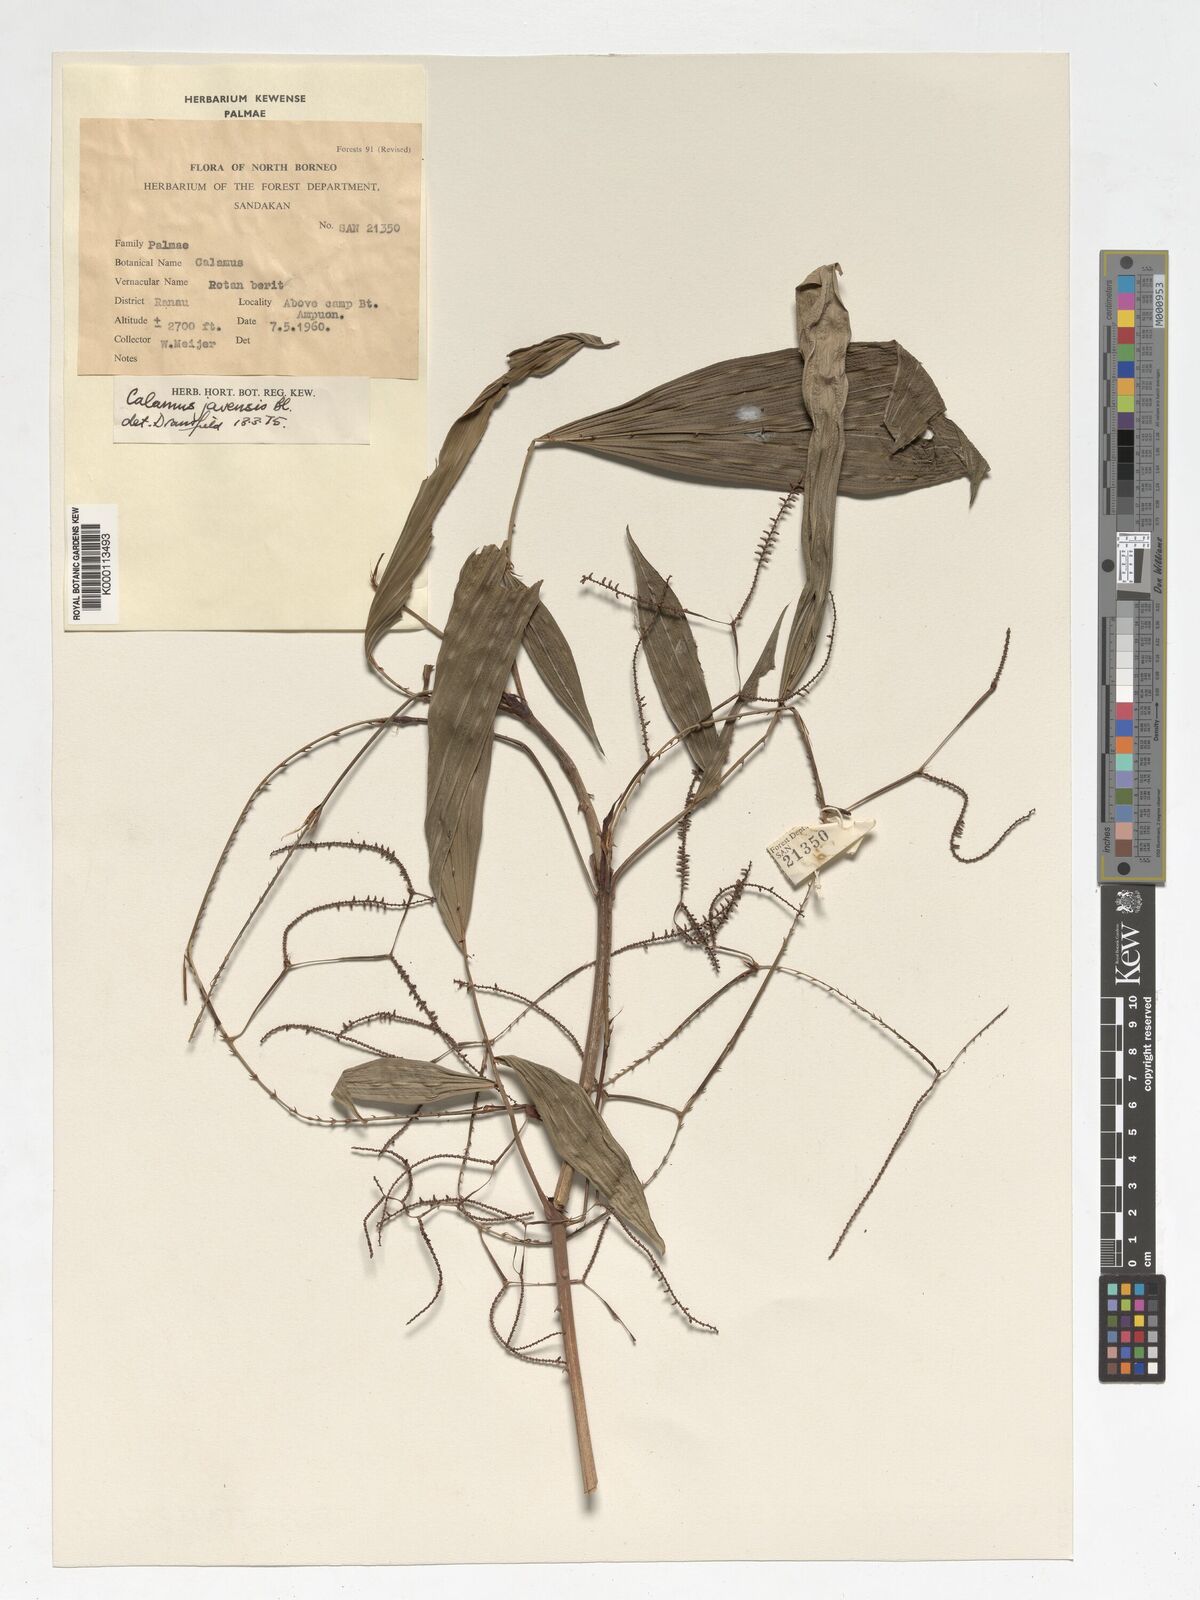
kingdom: Plantae
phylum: Tracheophyta
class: Liliopsida
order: Arecales
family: Arecaceae
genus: Calamus
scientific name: Calamus javensis
